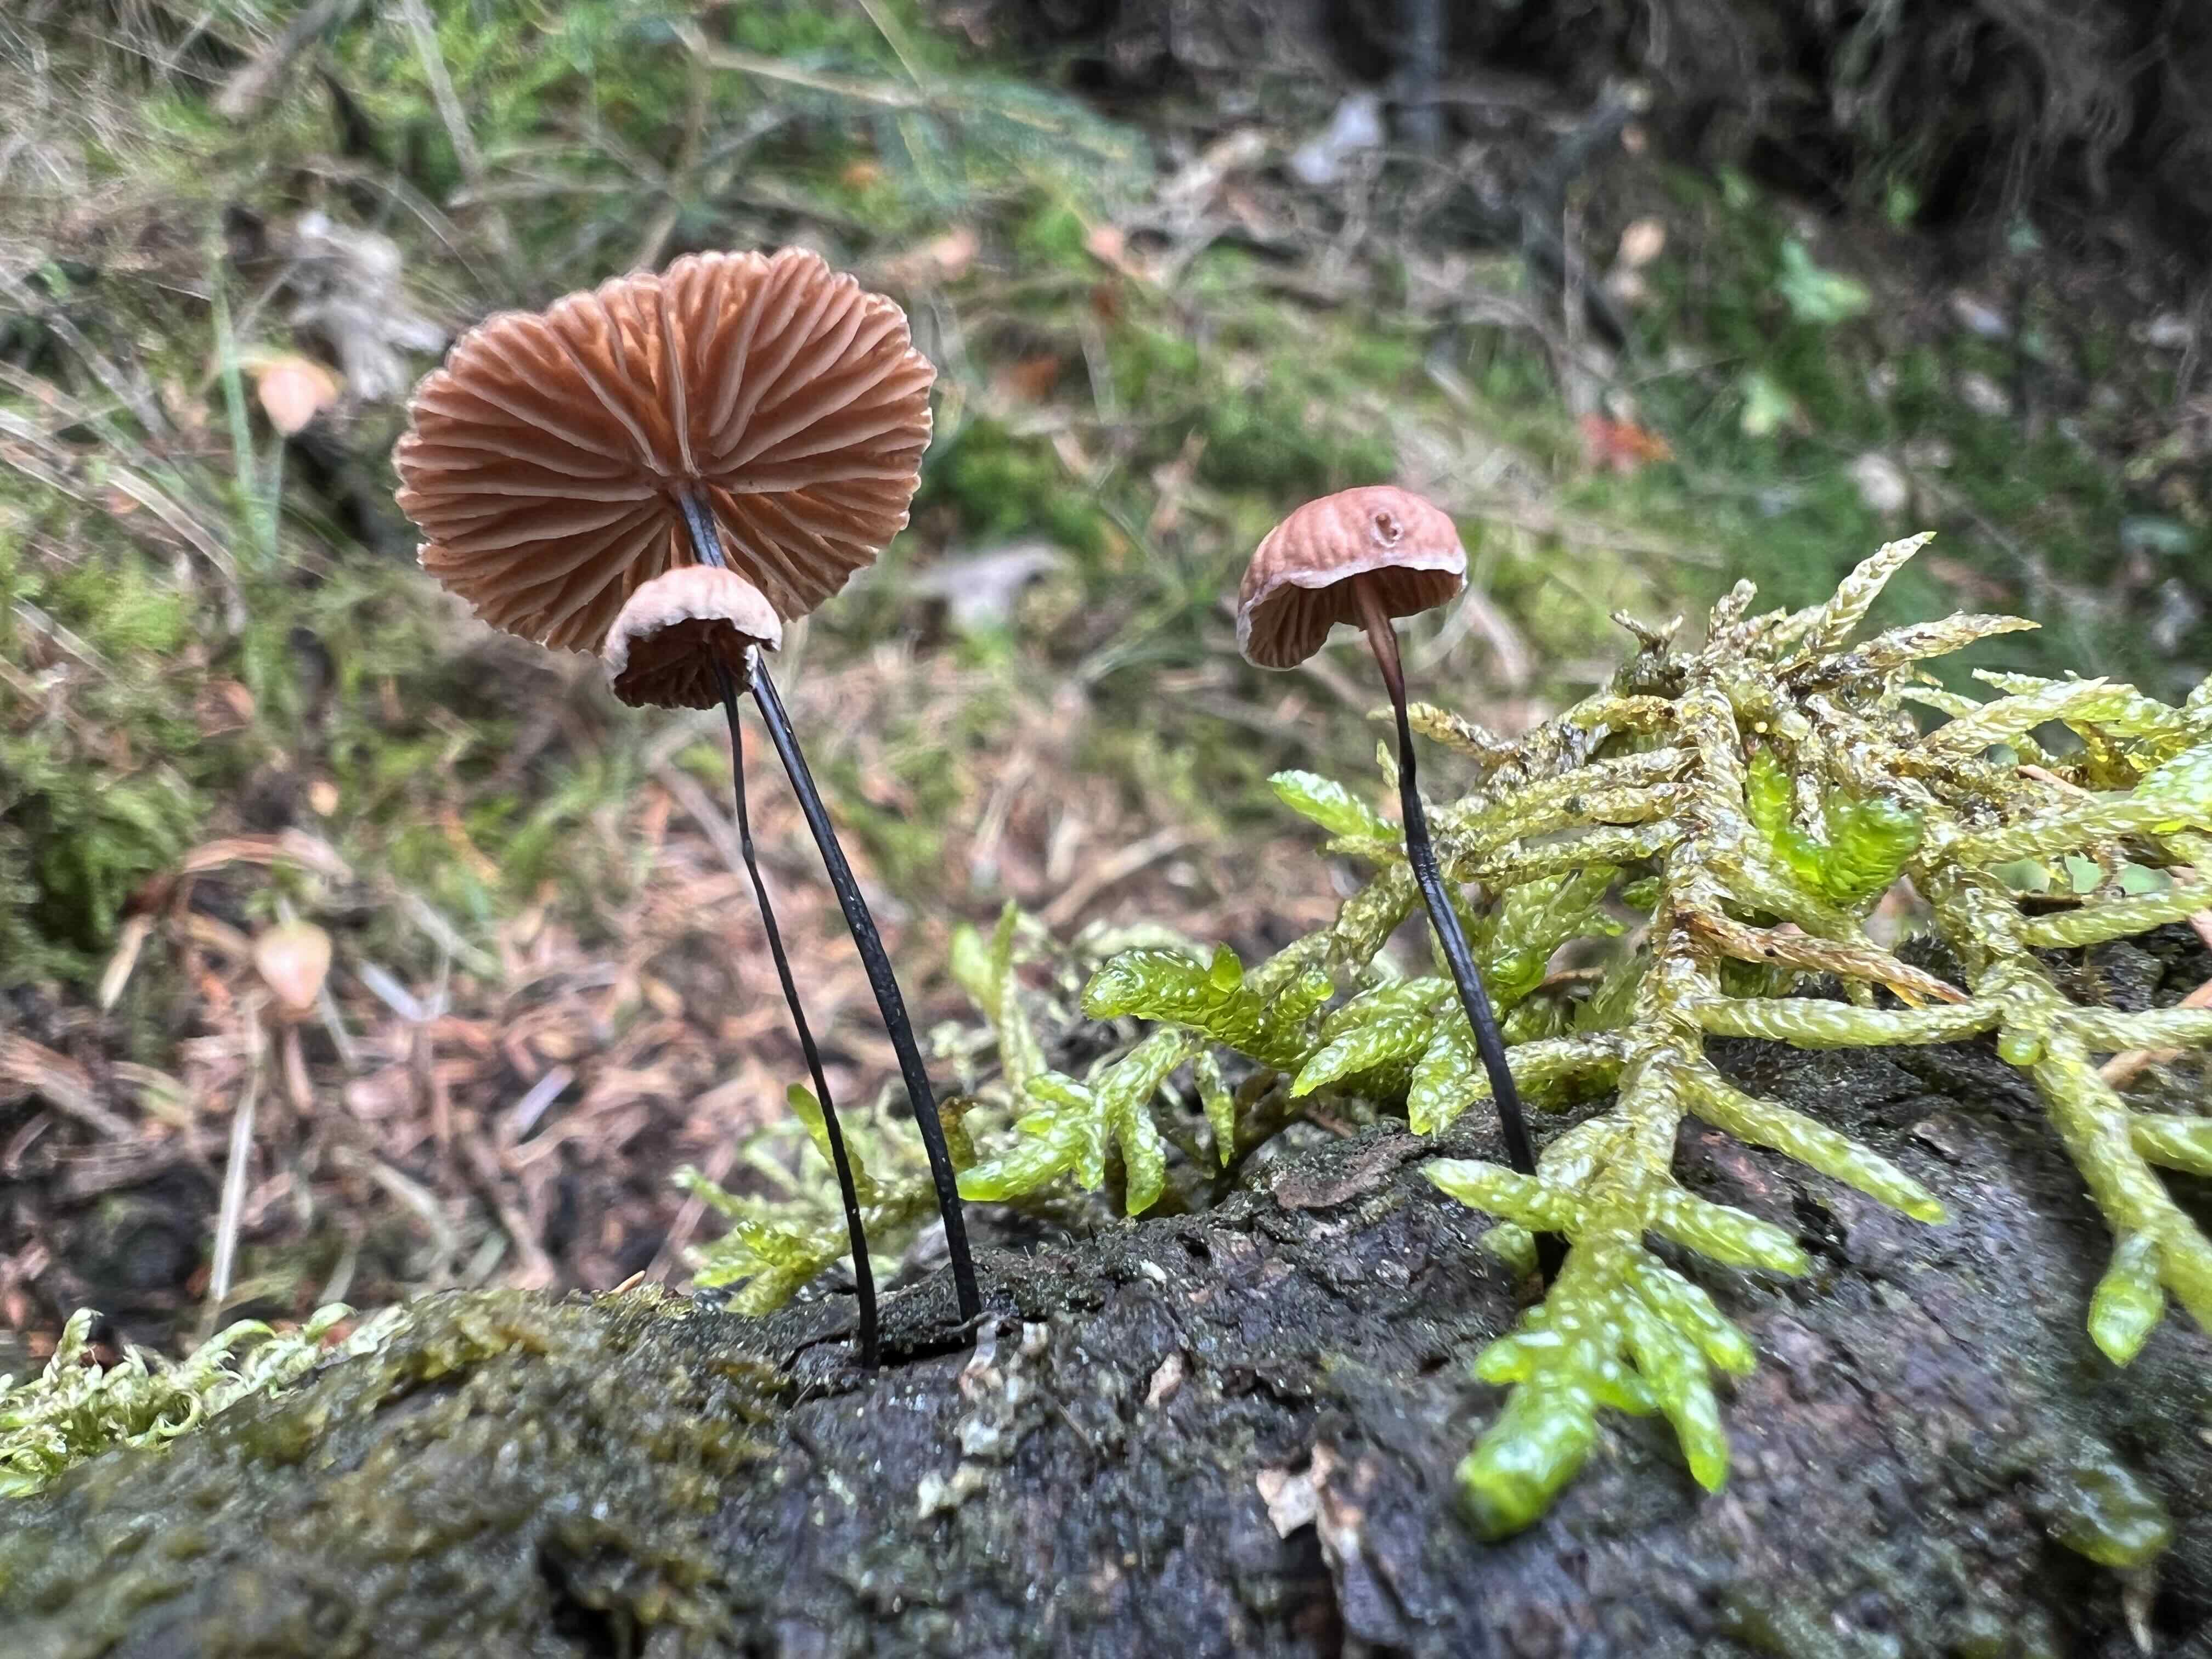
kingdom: Fungi
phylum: Basidiomycota
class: Agaricomycetes
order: Agaricales
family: Omphalotaceae
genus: Gymnopus
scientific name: Gymnopus androsaceus
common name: trådstokket fladhat
